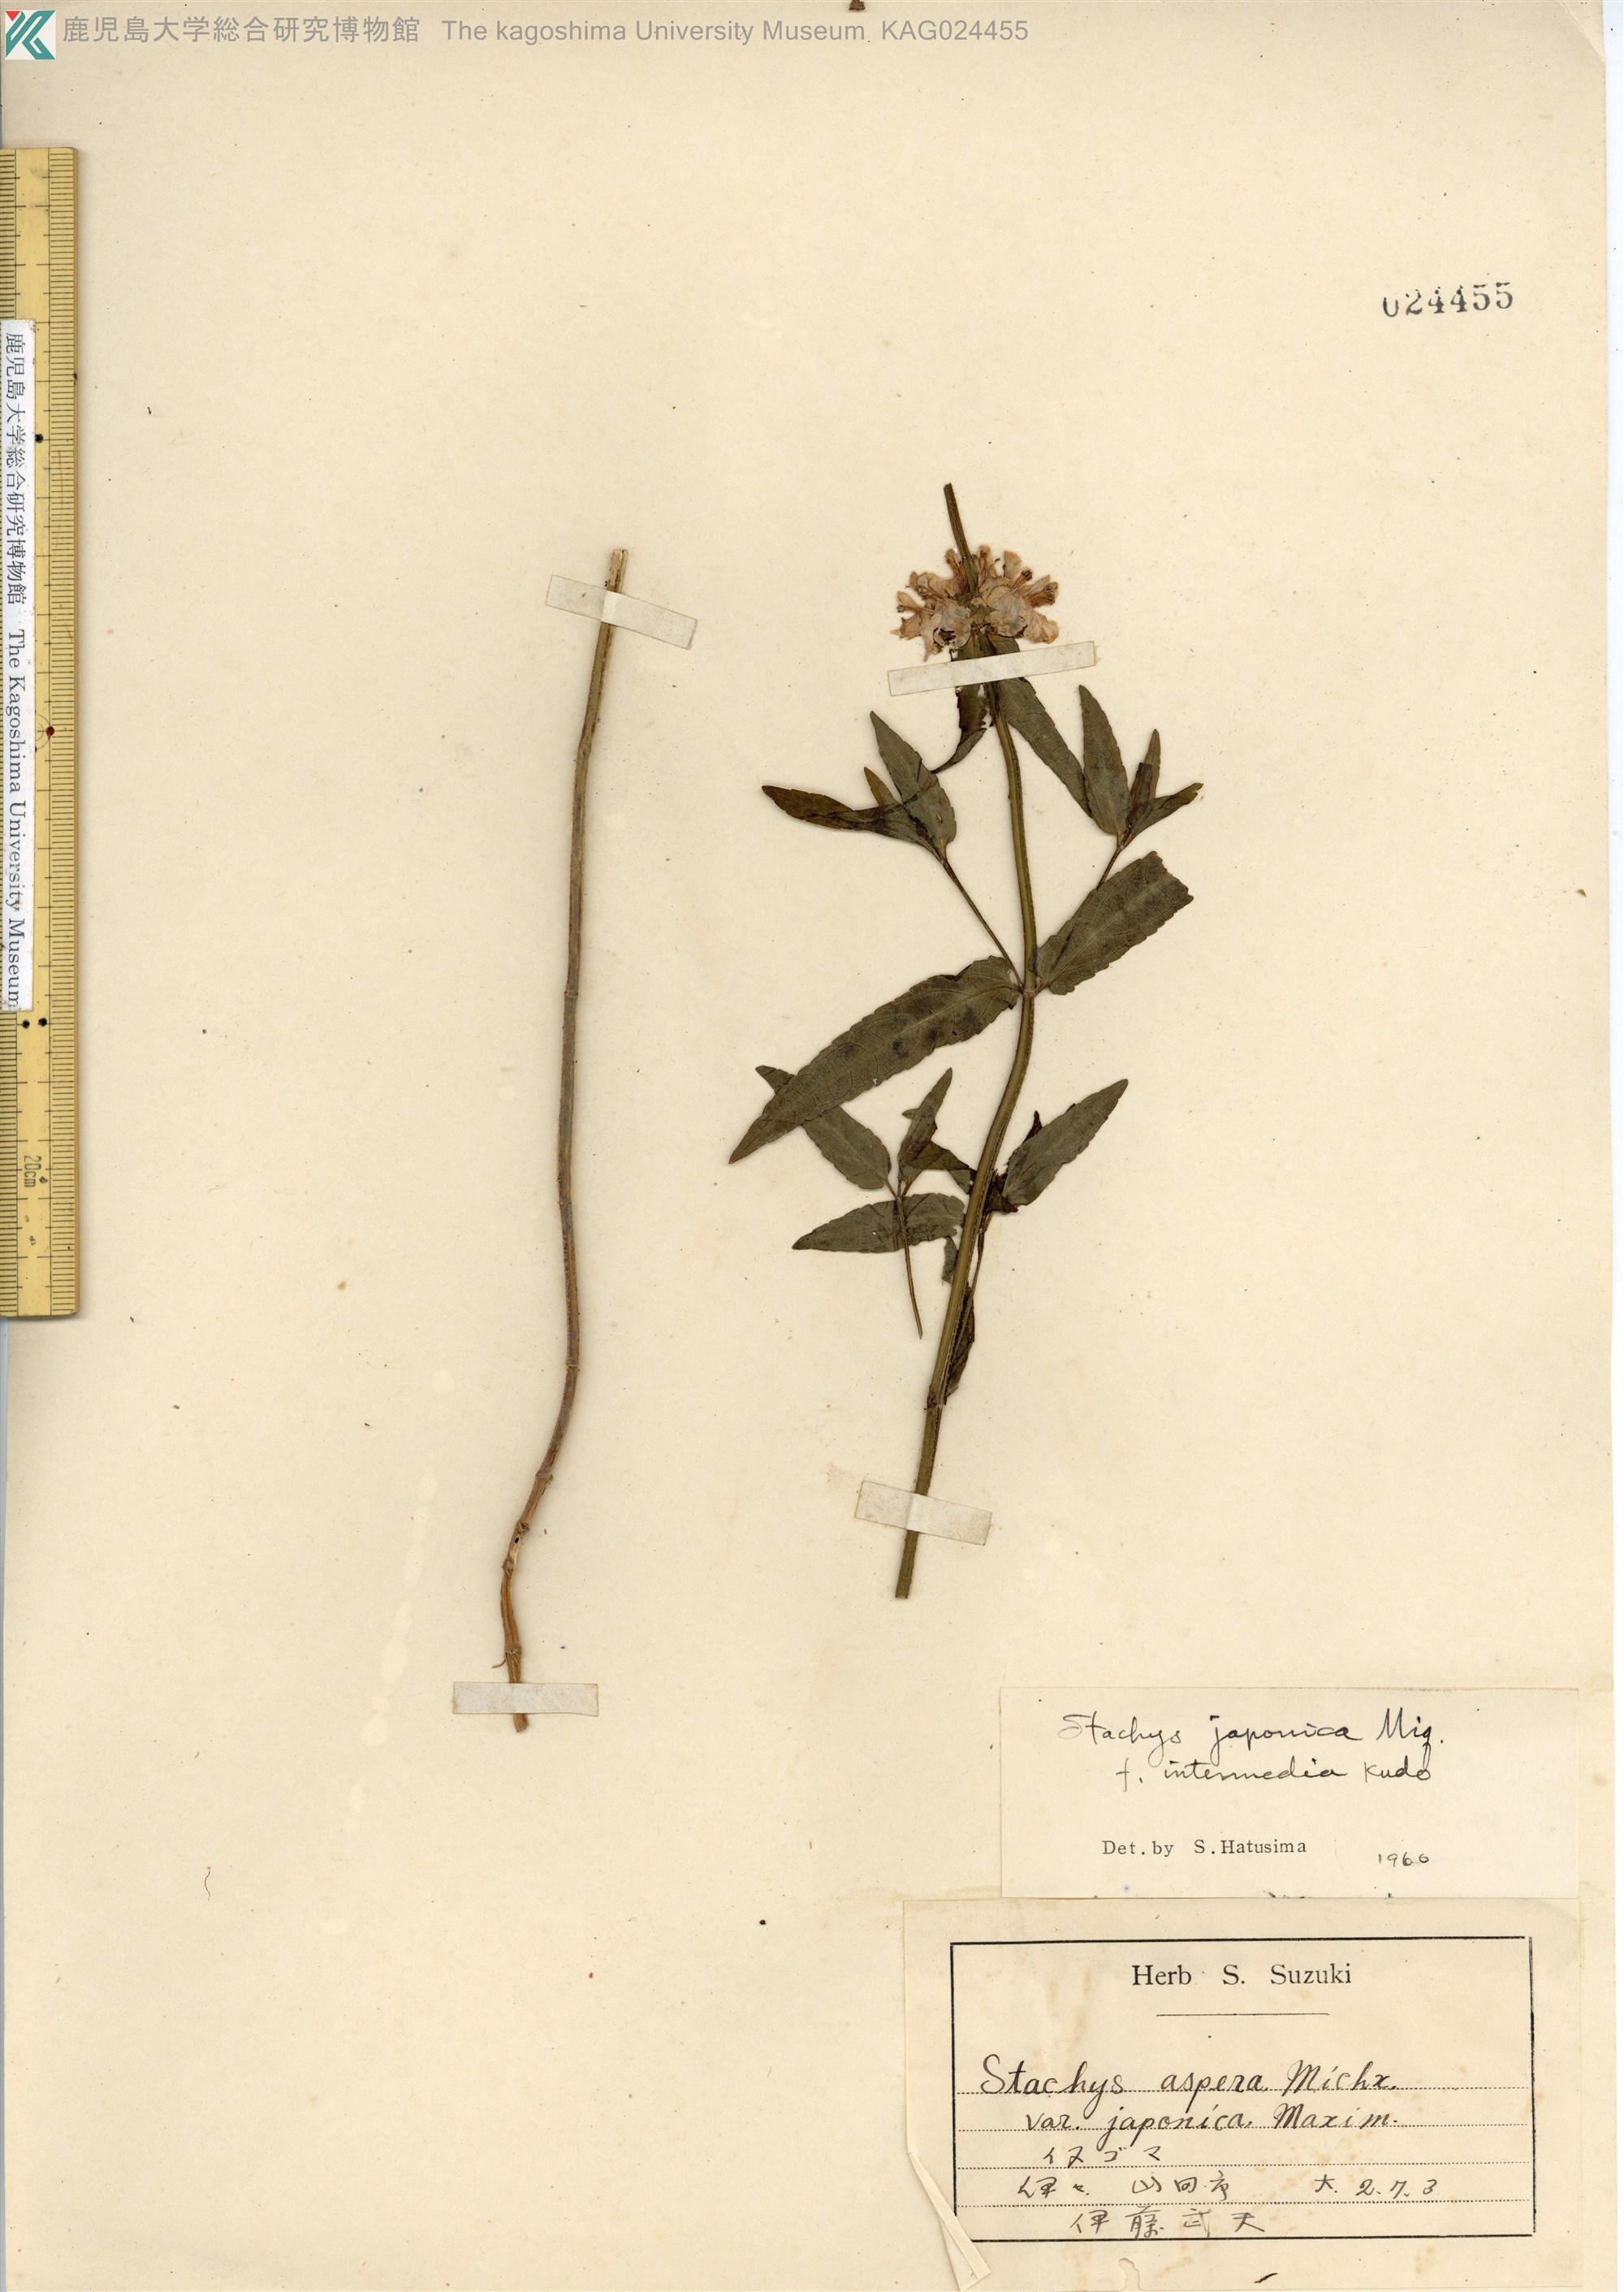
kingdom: Plantae
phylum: Tracheophyta
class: Magnoliopsida
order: Lamiales
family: Lamiaceae
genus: Stachys
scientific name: Stachys aspera
